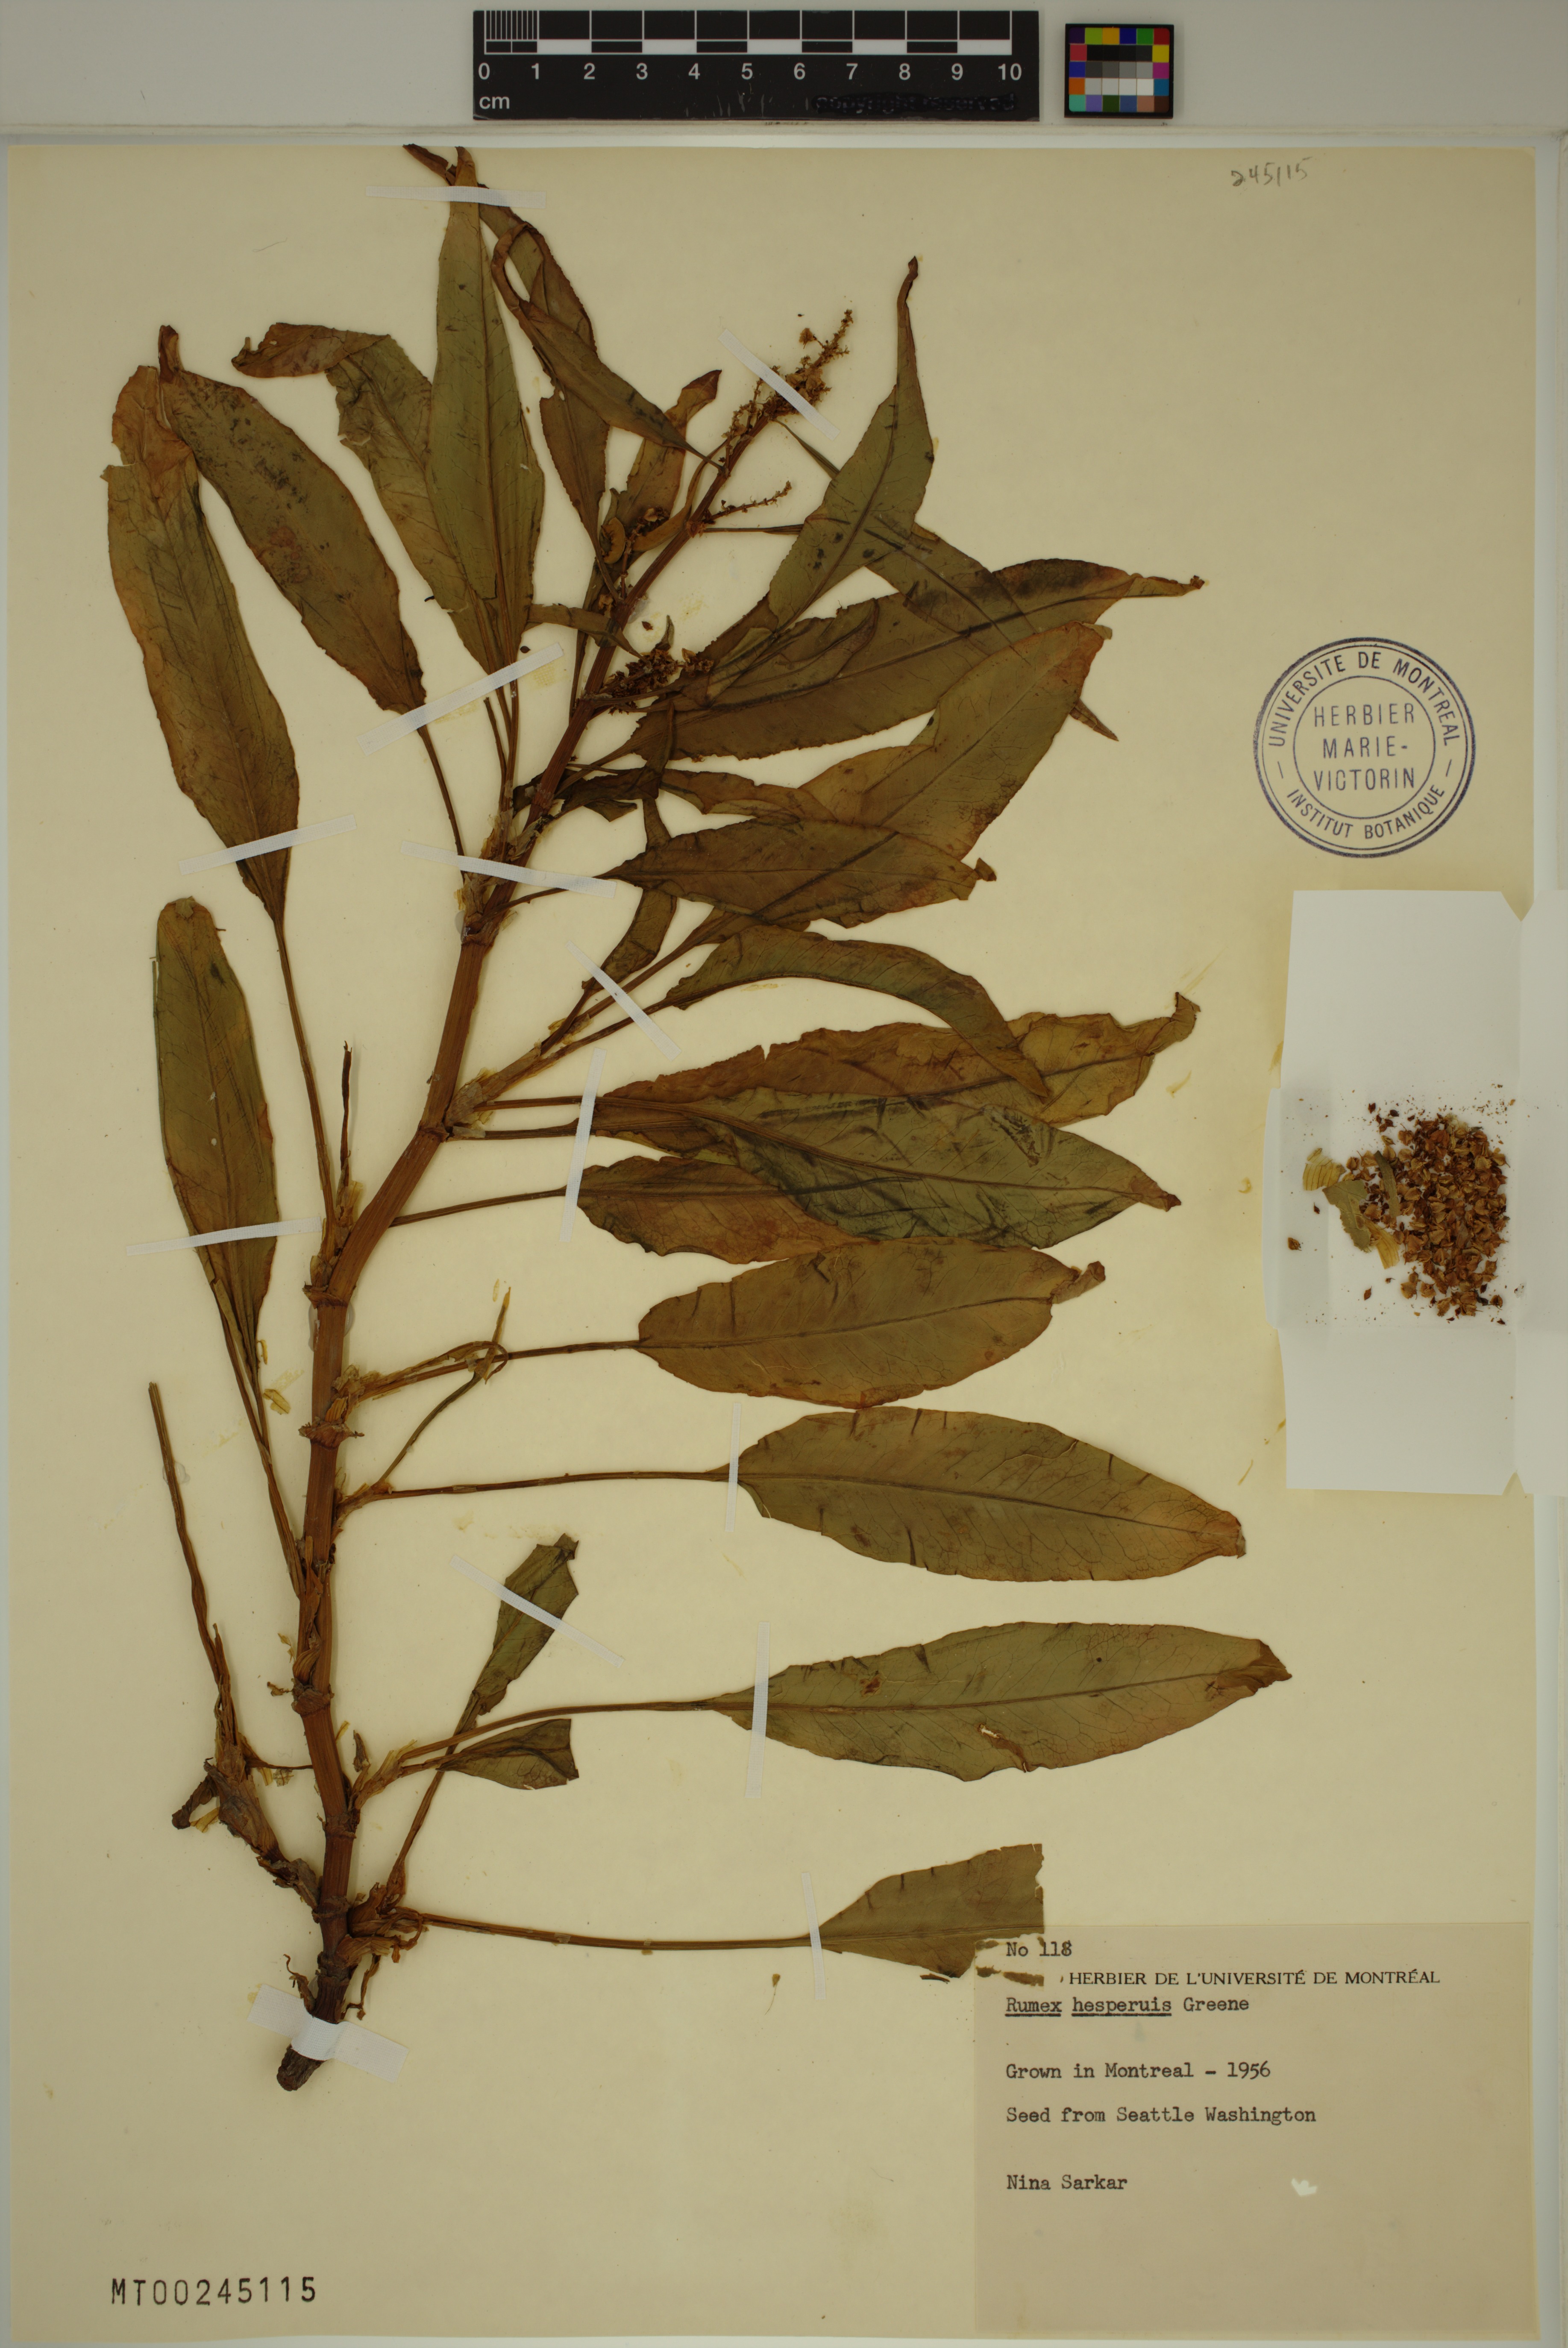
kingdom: Plantae
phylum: Tracheophyta
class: Magnoliopsida
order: Caryophyllales
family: Polygonaceae
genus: Rumex
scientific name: Rumex salicifolius
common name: Willow-leaved dock
